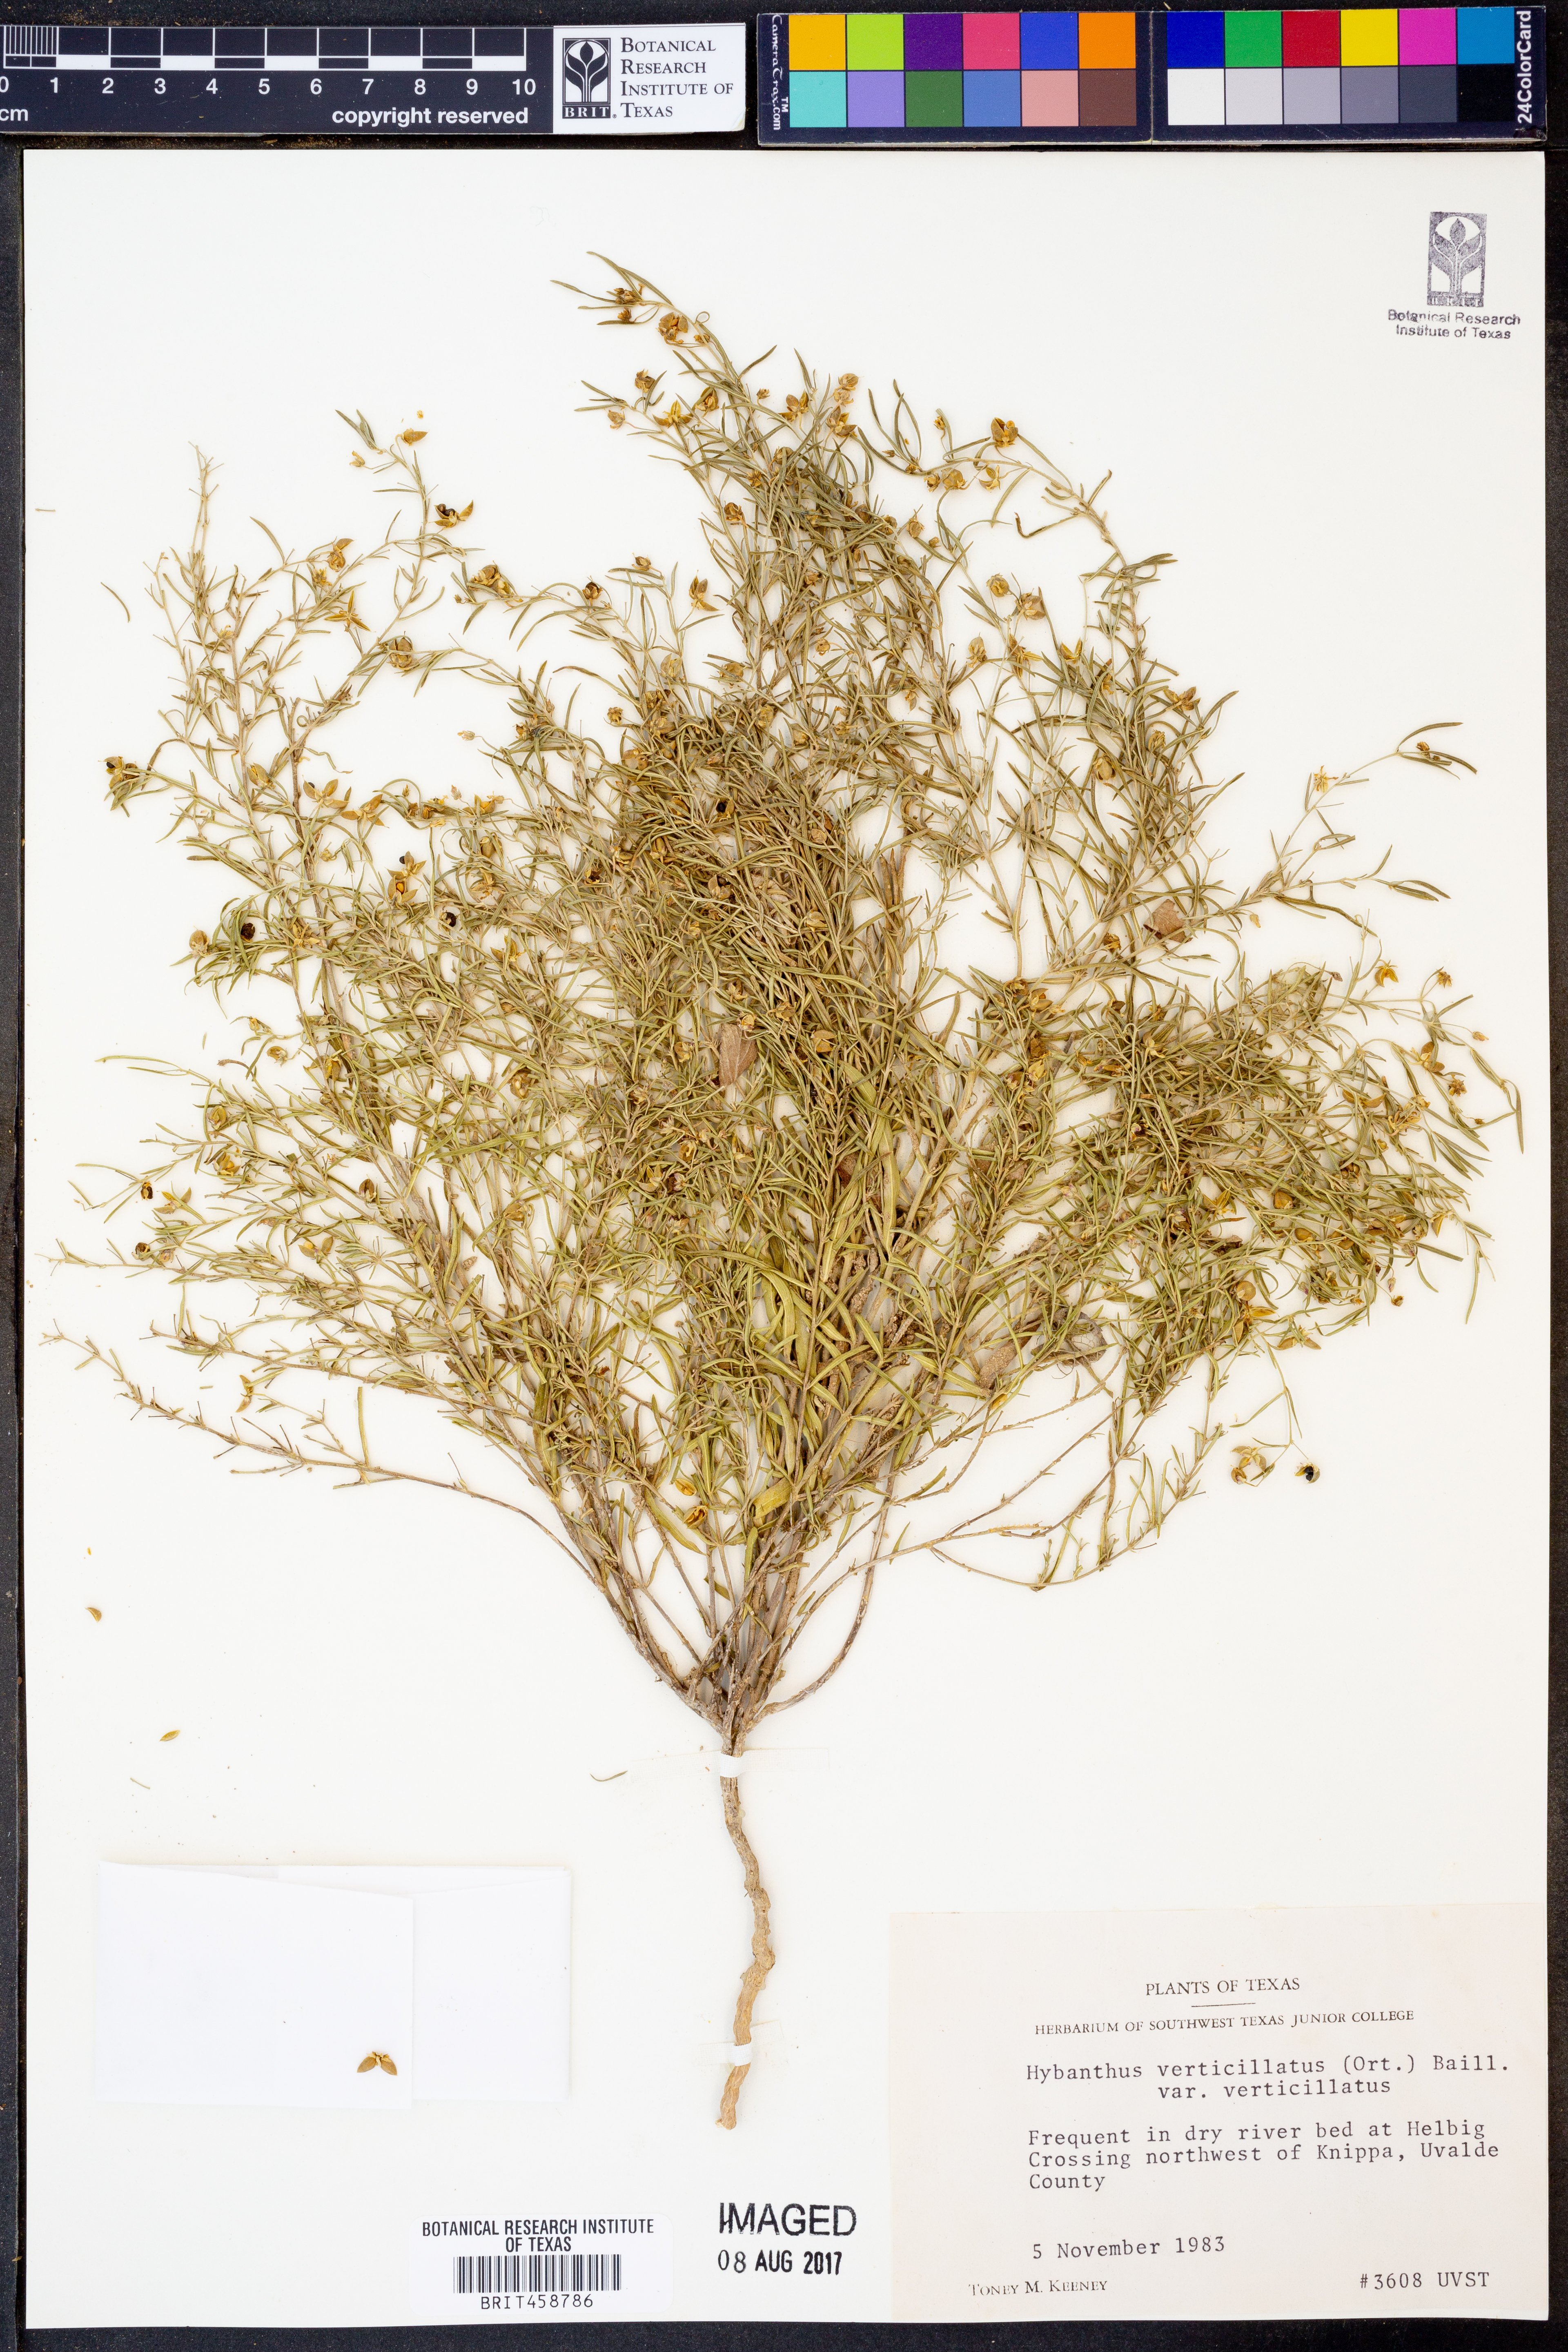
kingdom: Plantae
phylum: Tracheophyta
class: Magnoliopsida
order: Malpighiales
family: Violaceae
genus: Pombalia
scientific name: Pombalia verticillata
